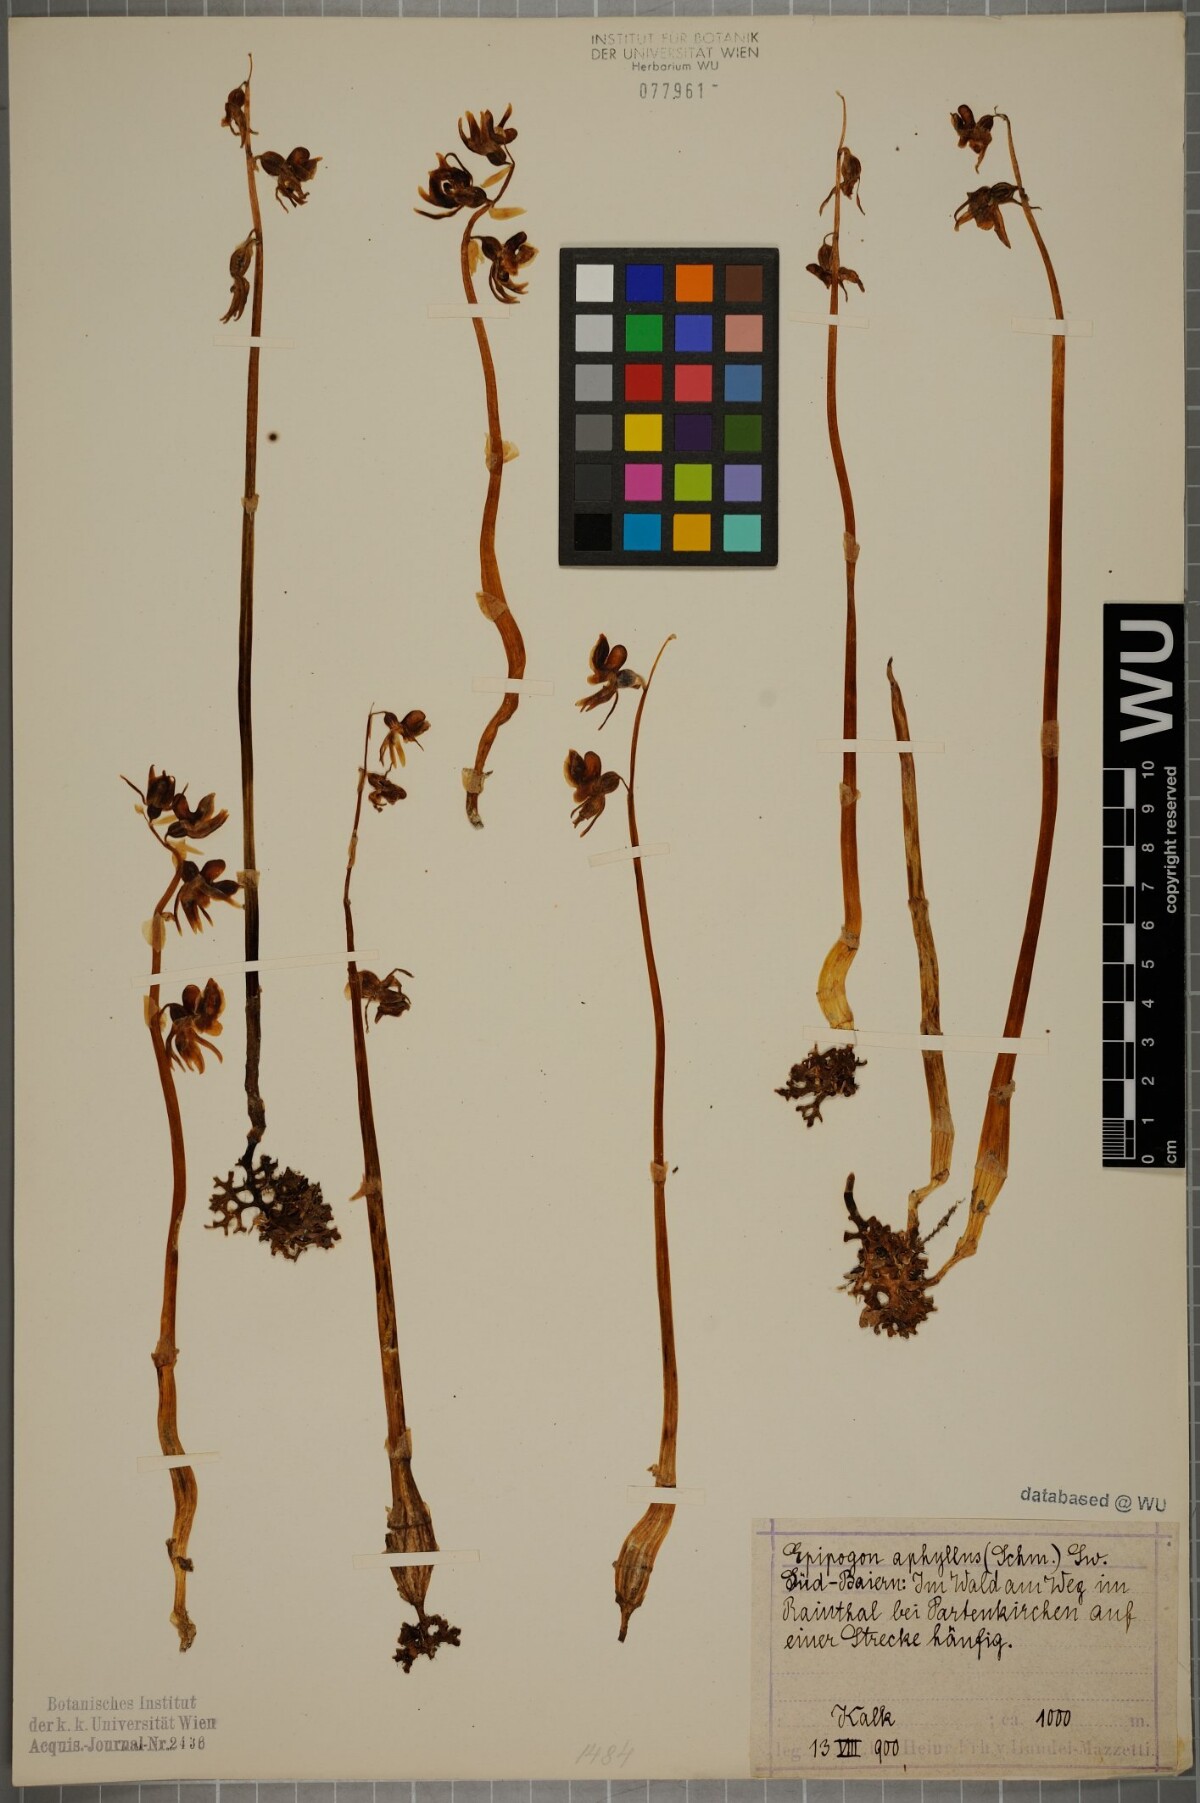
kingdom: Plantae
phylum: Tracheophyta
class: Liliopsida
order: Asparagales
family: Orchidaceae
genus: Epipogium
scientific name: Epipogium aphyllum
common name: Ghost orchid
